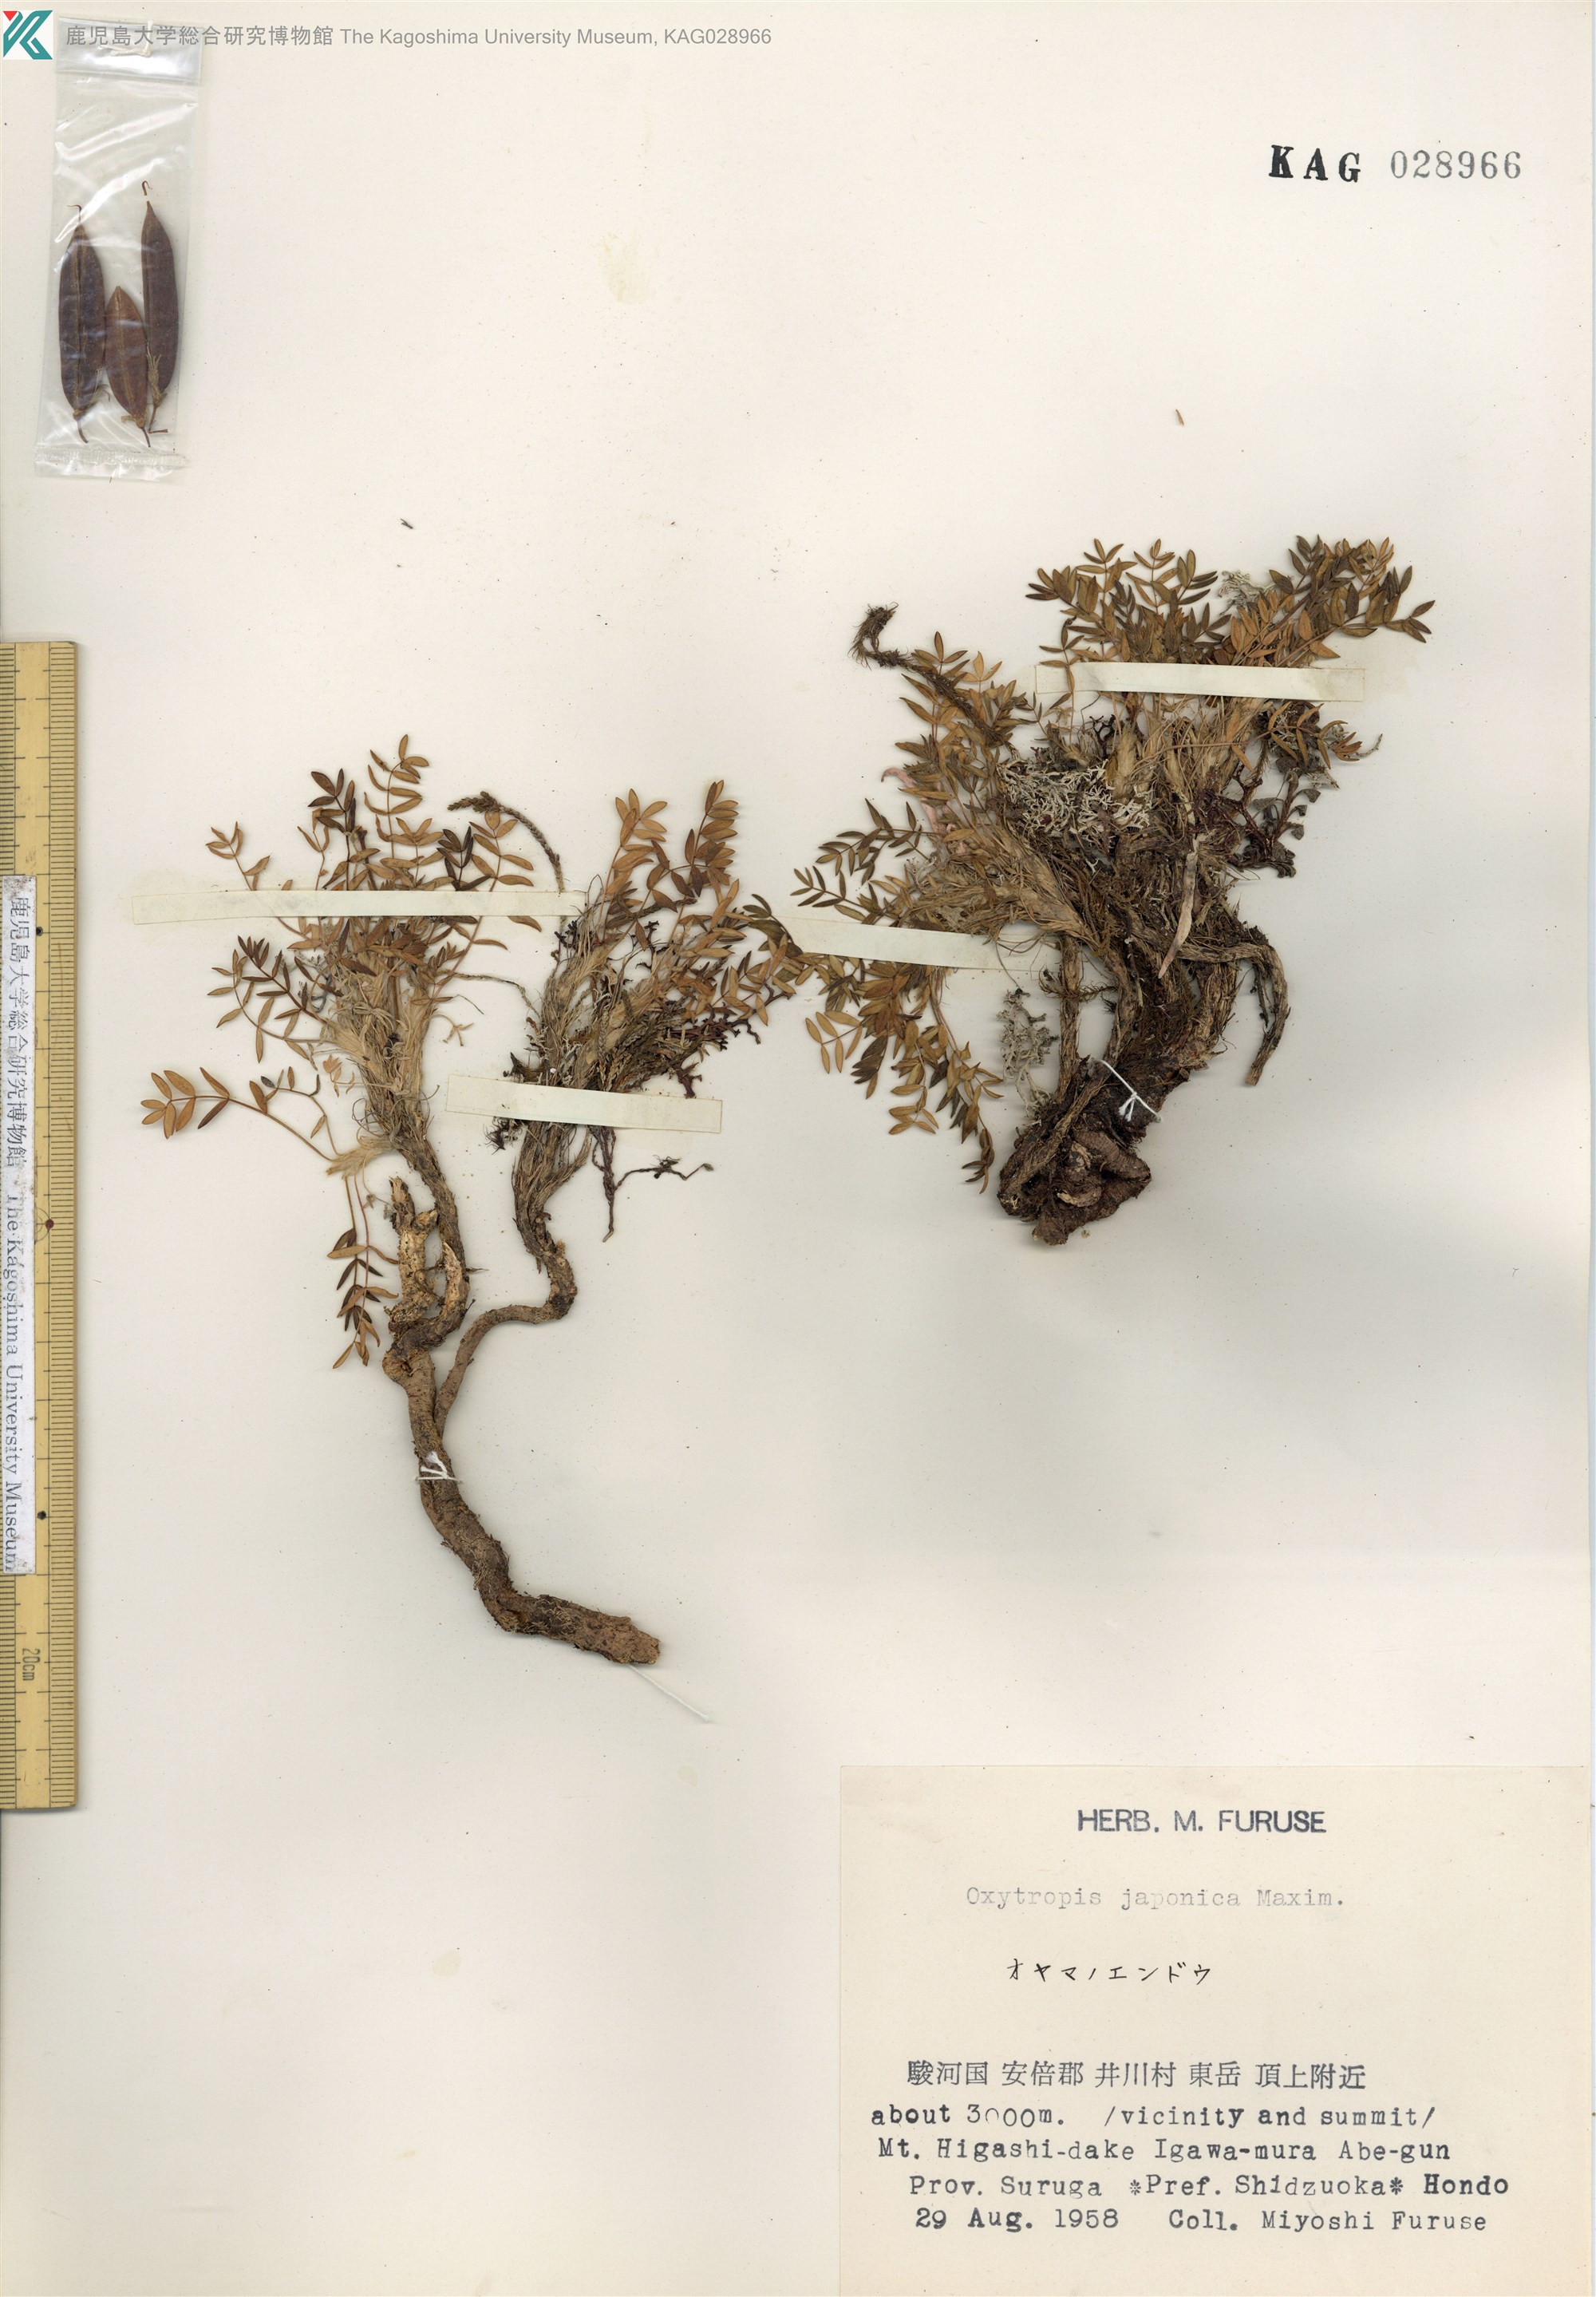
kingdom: Plantae
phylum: Tracheophyta
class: Magnoliopsida
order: Fabales
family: Fabaceae
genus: Oxytropis
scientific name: Oxytropis japonica
